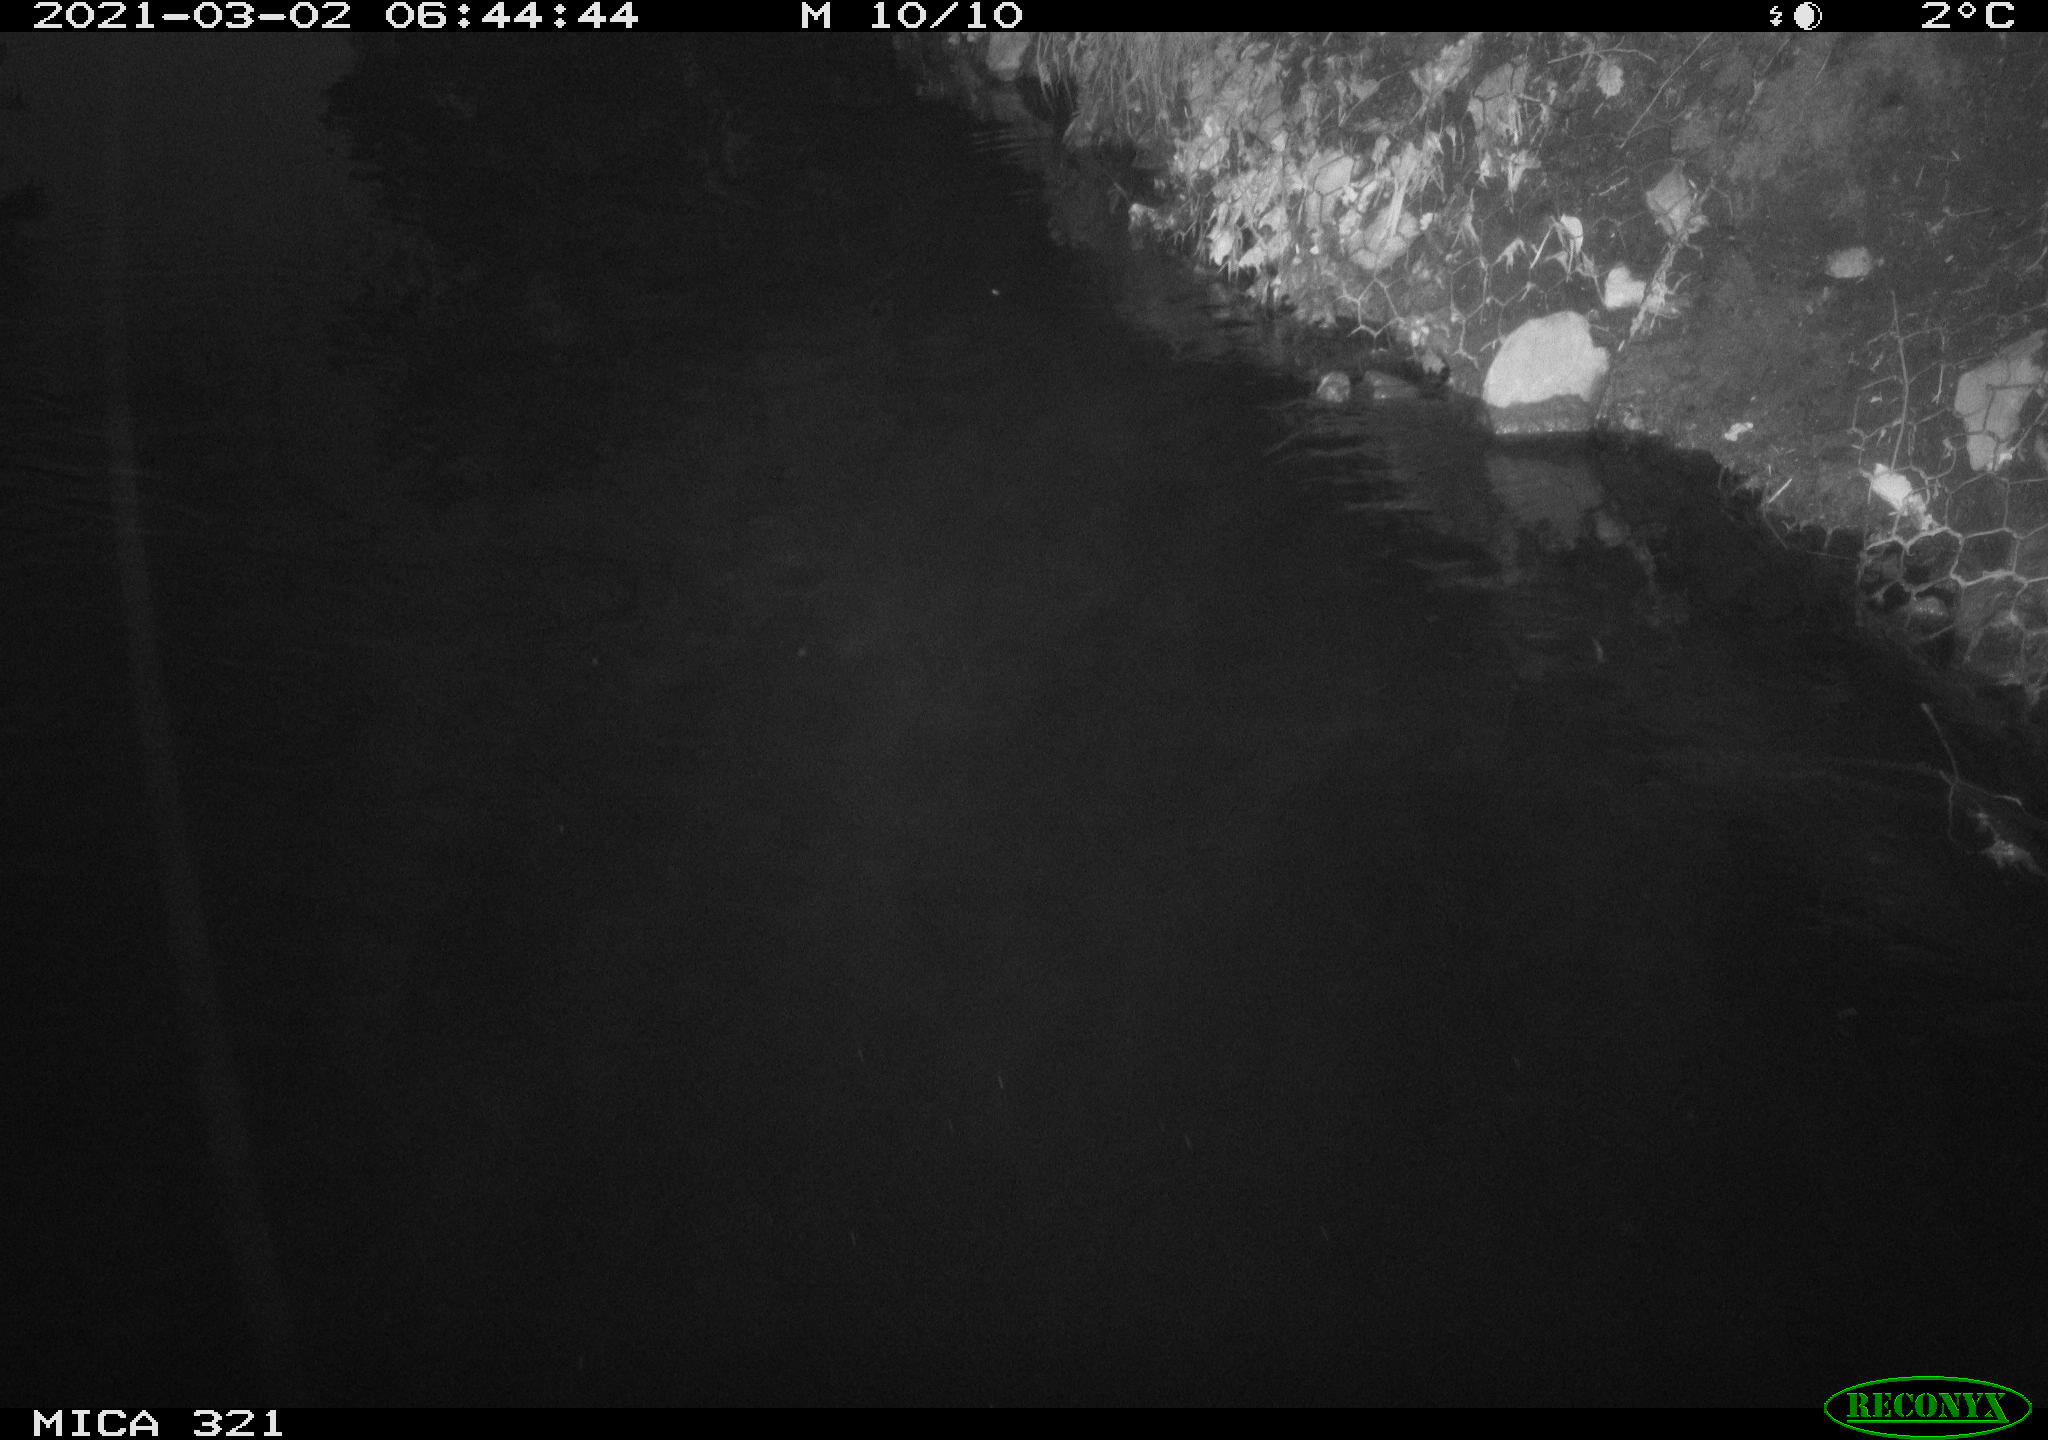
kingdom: Animalia
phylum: Chordata
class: Aves
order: Anseriformes
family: Anatidae
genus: Anas
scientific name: Anas platyrhynchos
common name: Mallard
